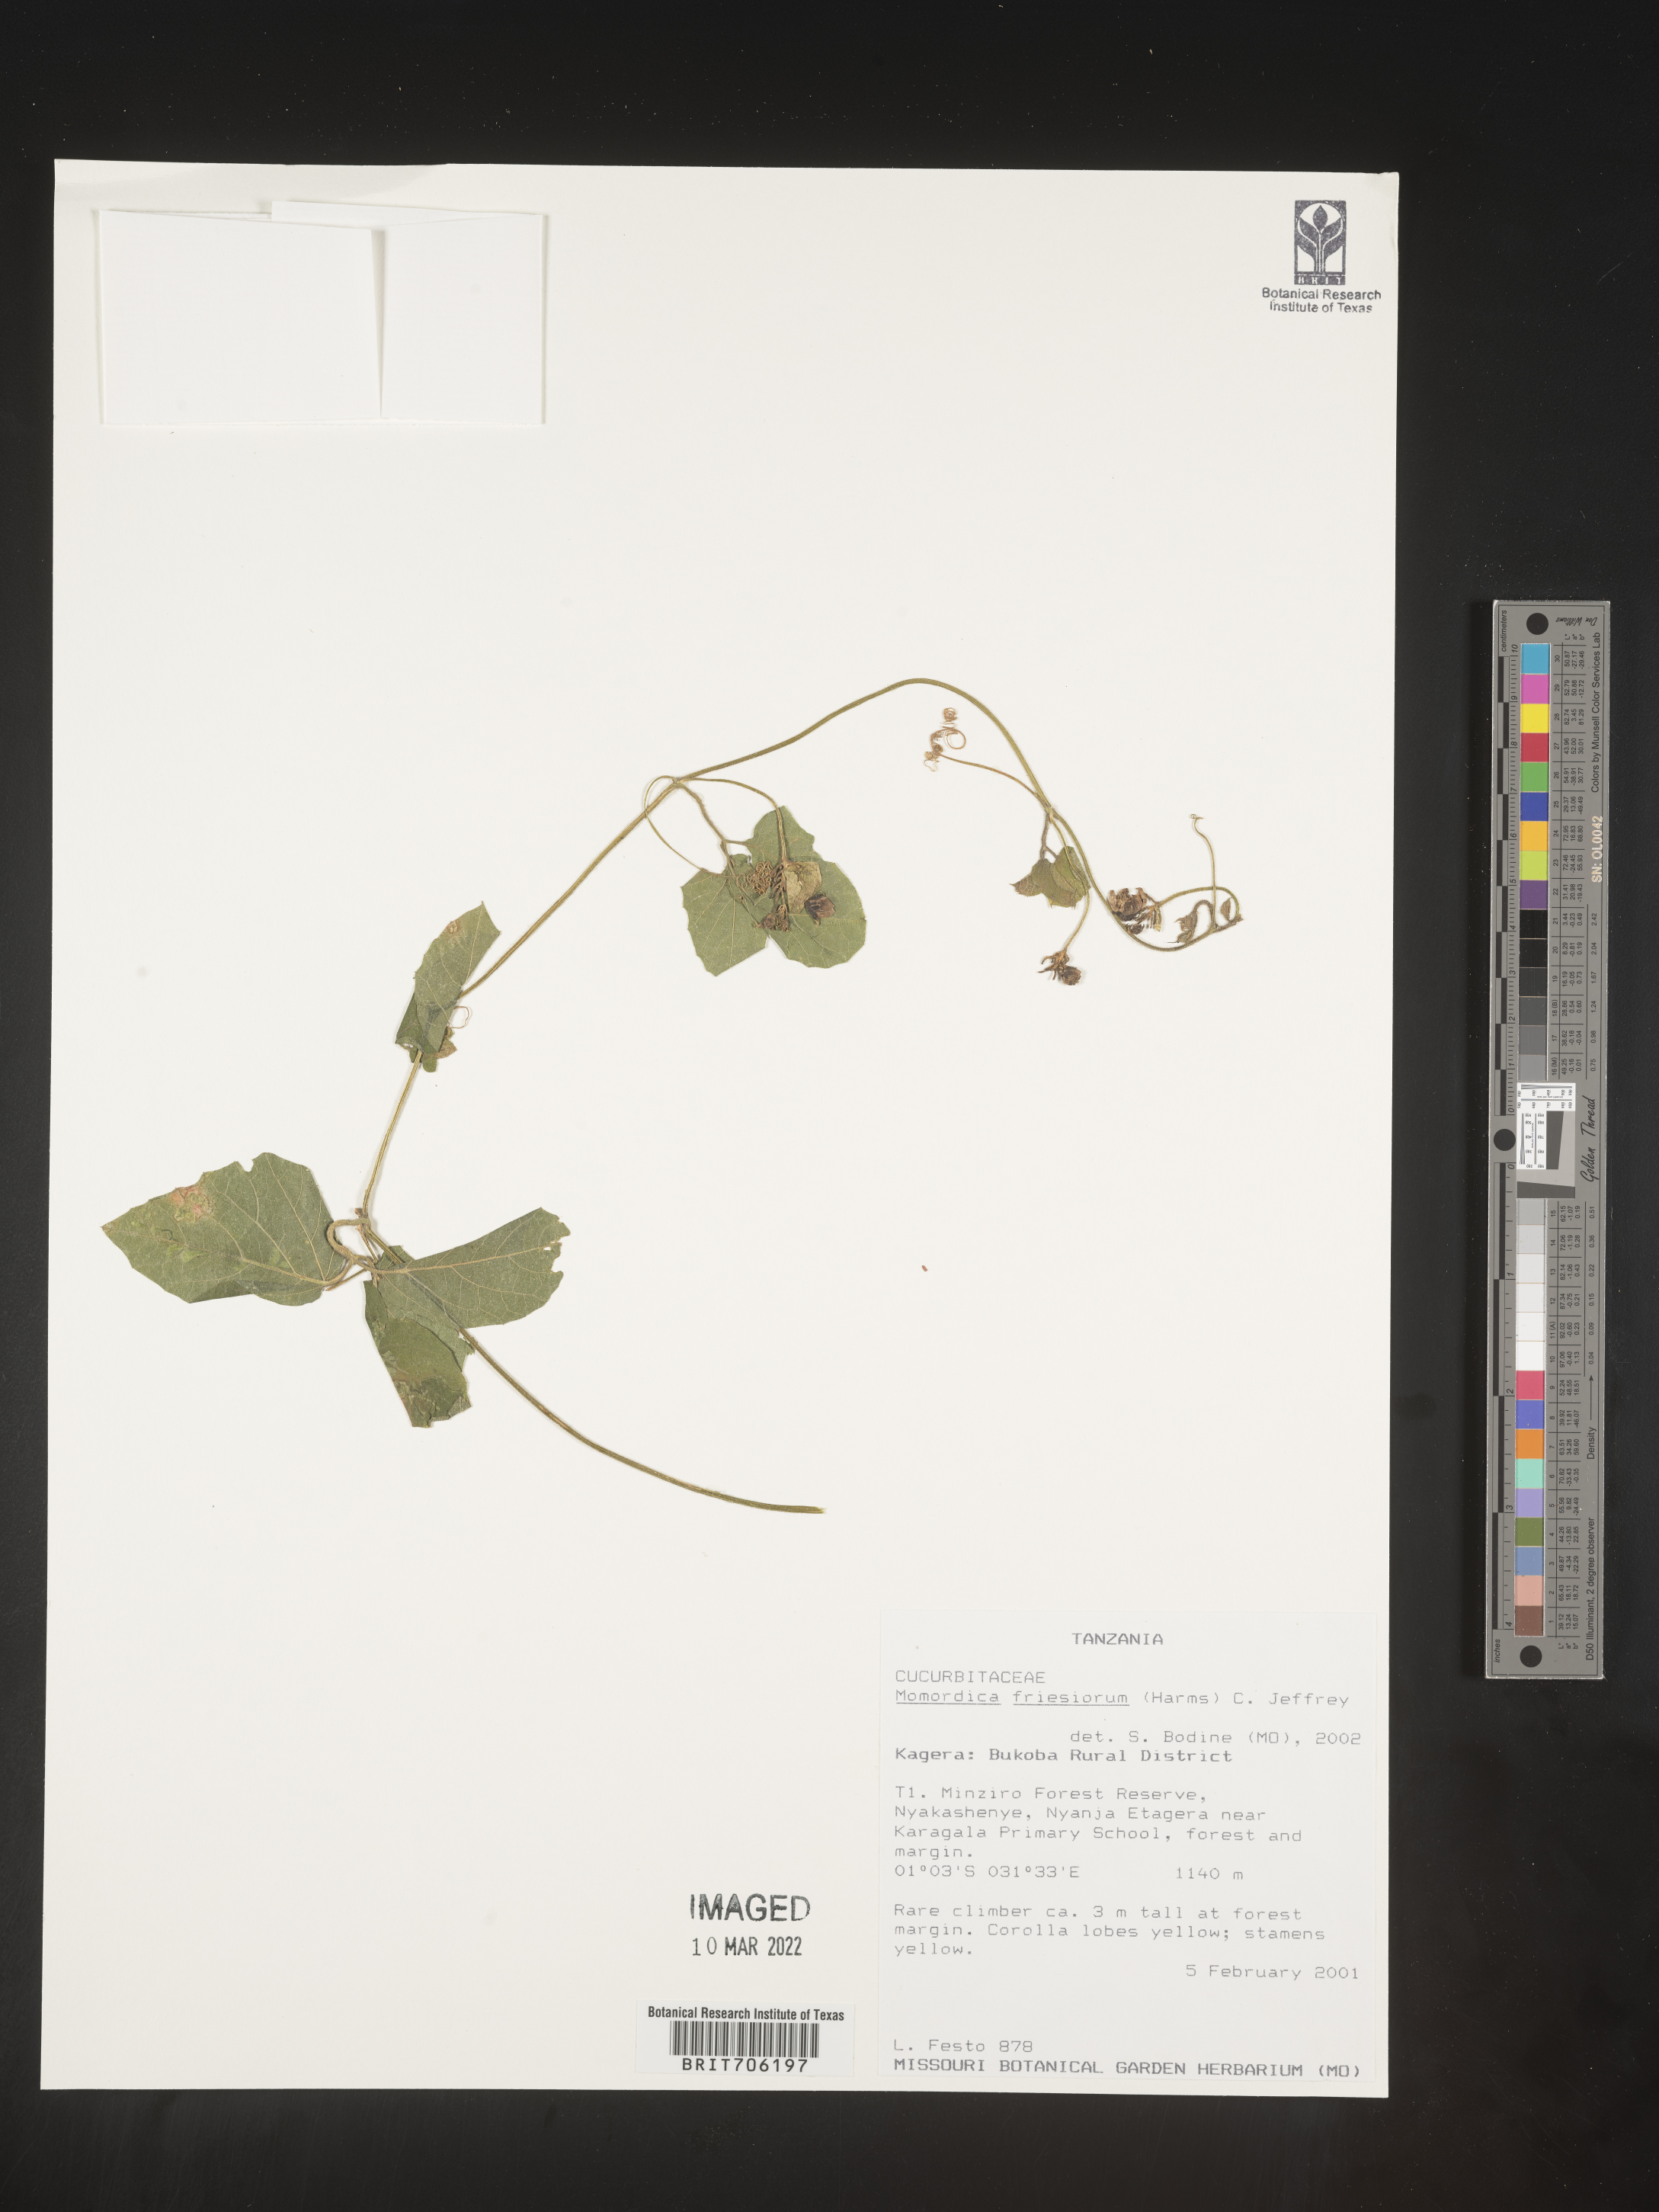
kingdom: Plantae
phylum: Tracheophyta
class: Magnoliopsida
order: Cucurbitales
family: Cucurbitaceae
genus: Momordica
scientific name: Momordica
